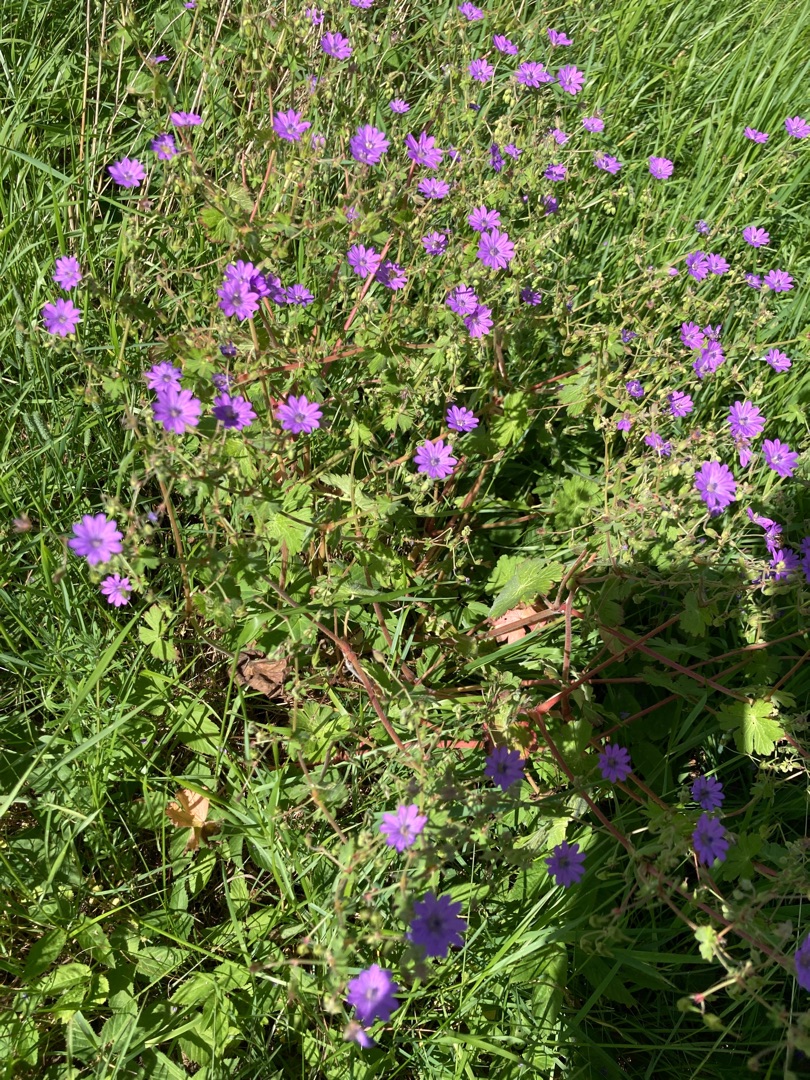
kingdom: Plantae
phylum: Tracheophyta
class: Magnoliopsida
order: Geraniales
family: Geraniaceae
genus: Geranium
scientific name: Geranium pyrenaicum
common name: Pyrenæisk storkenæb
